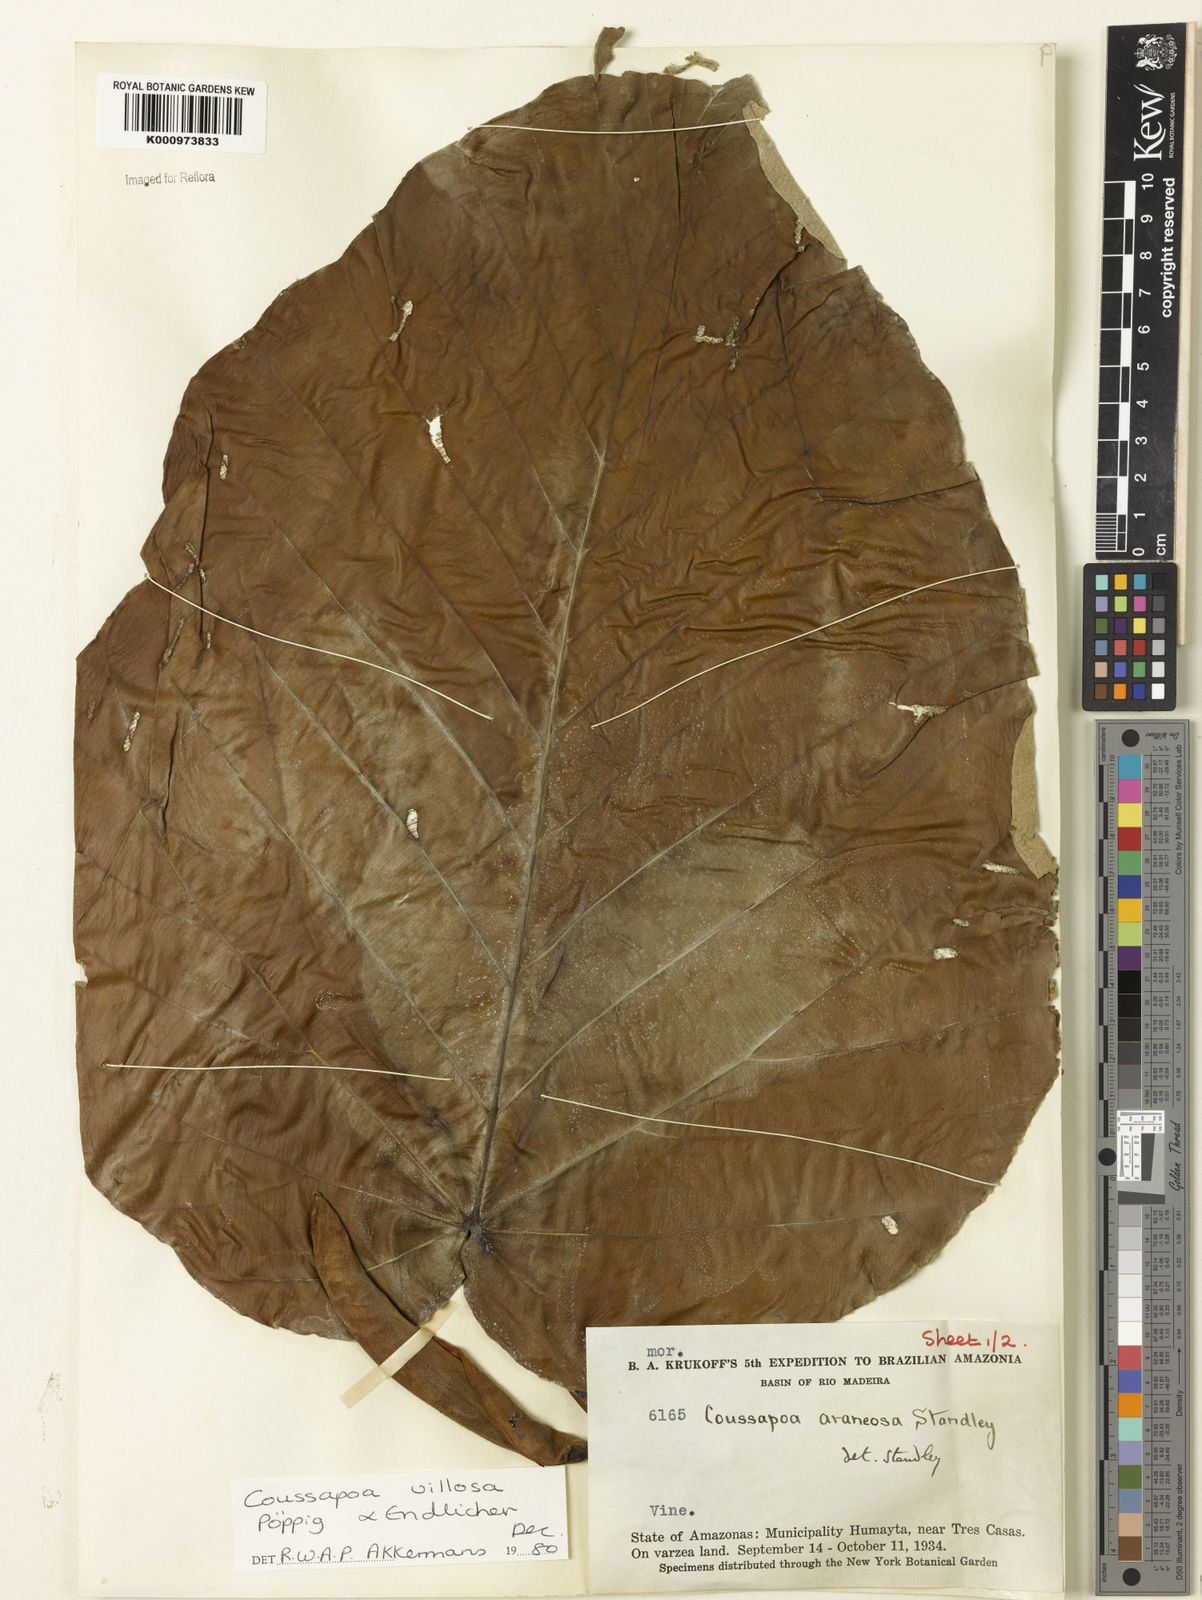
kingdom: Plantae
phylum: Tracheophyta
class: Magnoliopsida
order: Rosales
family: Urticaceae
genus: Coussapoa
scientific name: Coussapoa villosa
